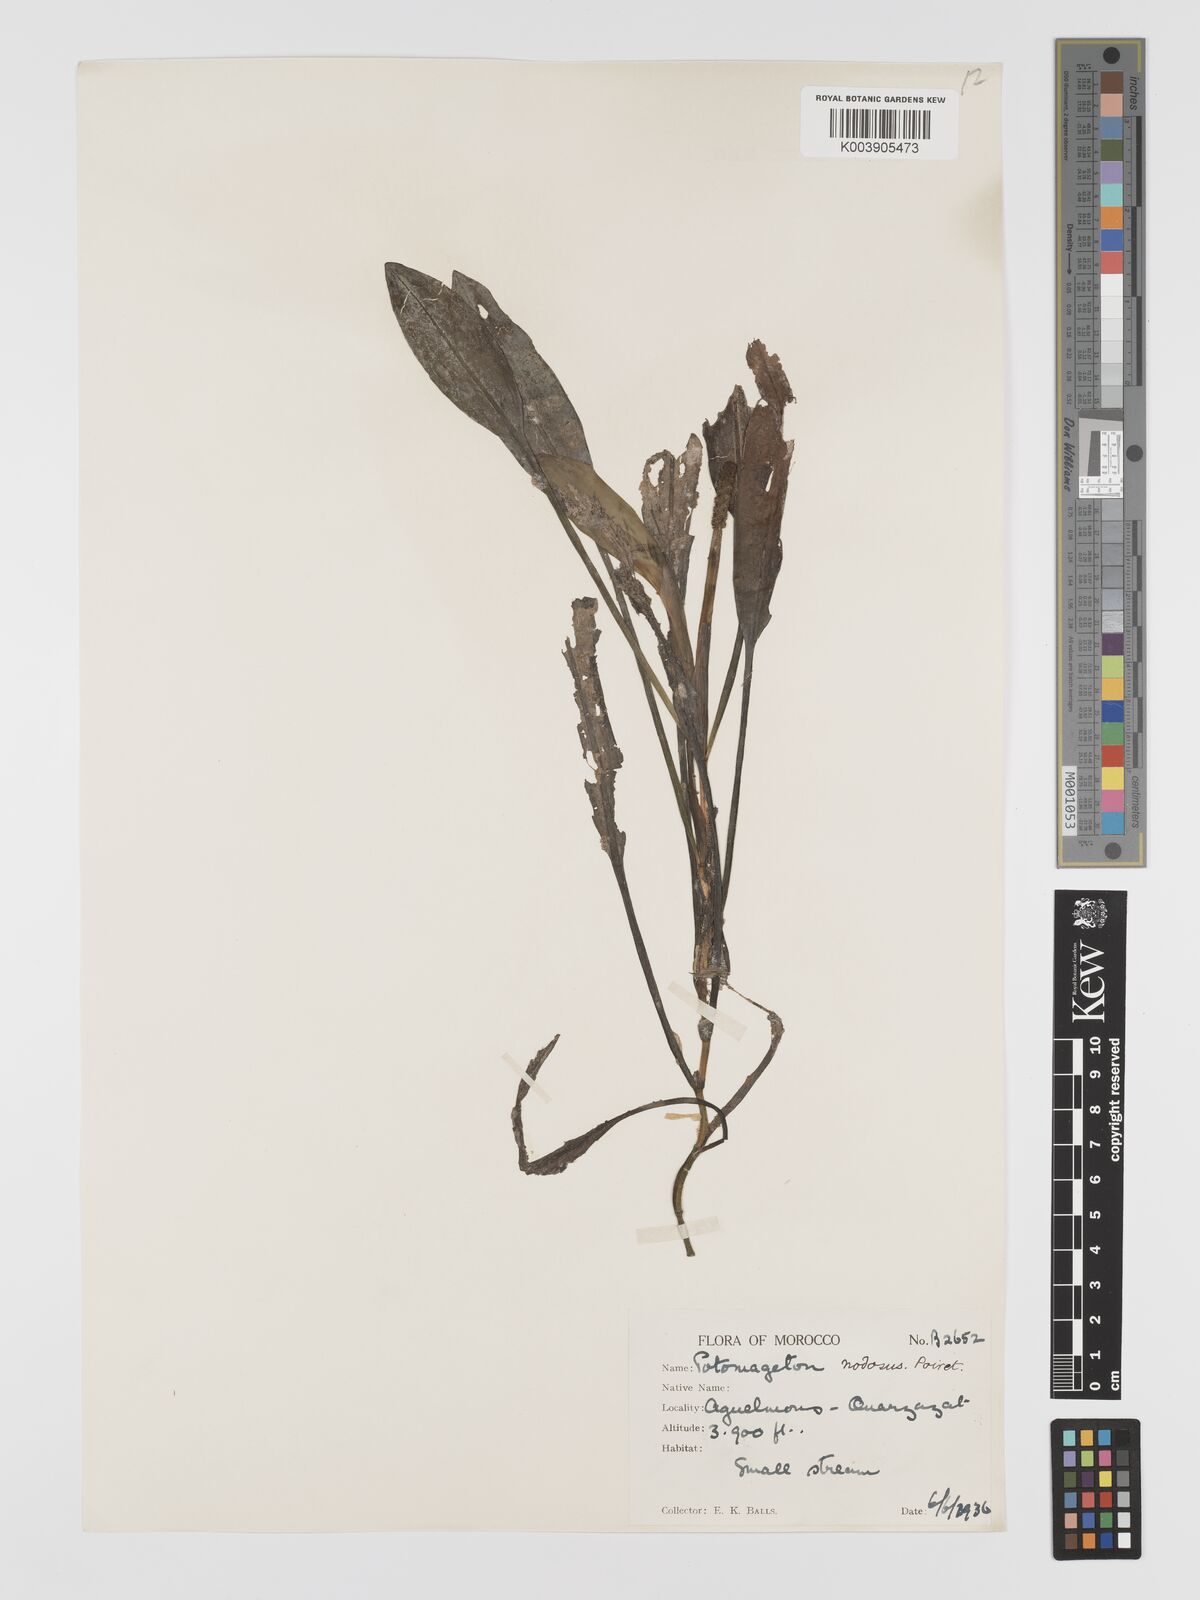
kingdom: Plantae
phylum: Tracheophyta
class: Liliopsida
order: Alismatales
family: Potamogetonaceae
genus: Potamogeton
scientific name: Potamogeton nodosus
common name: Loddon pondweed
